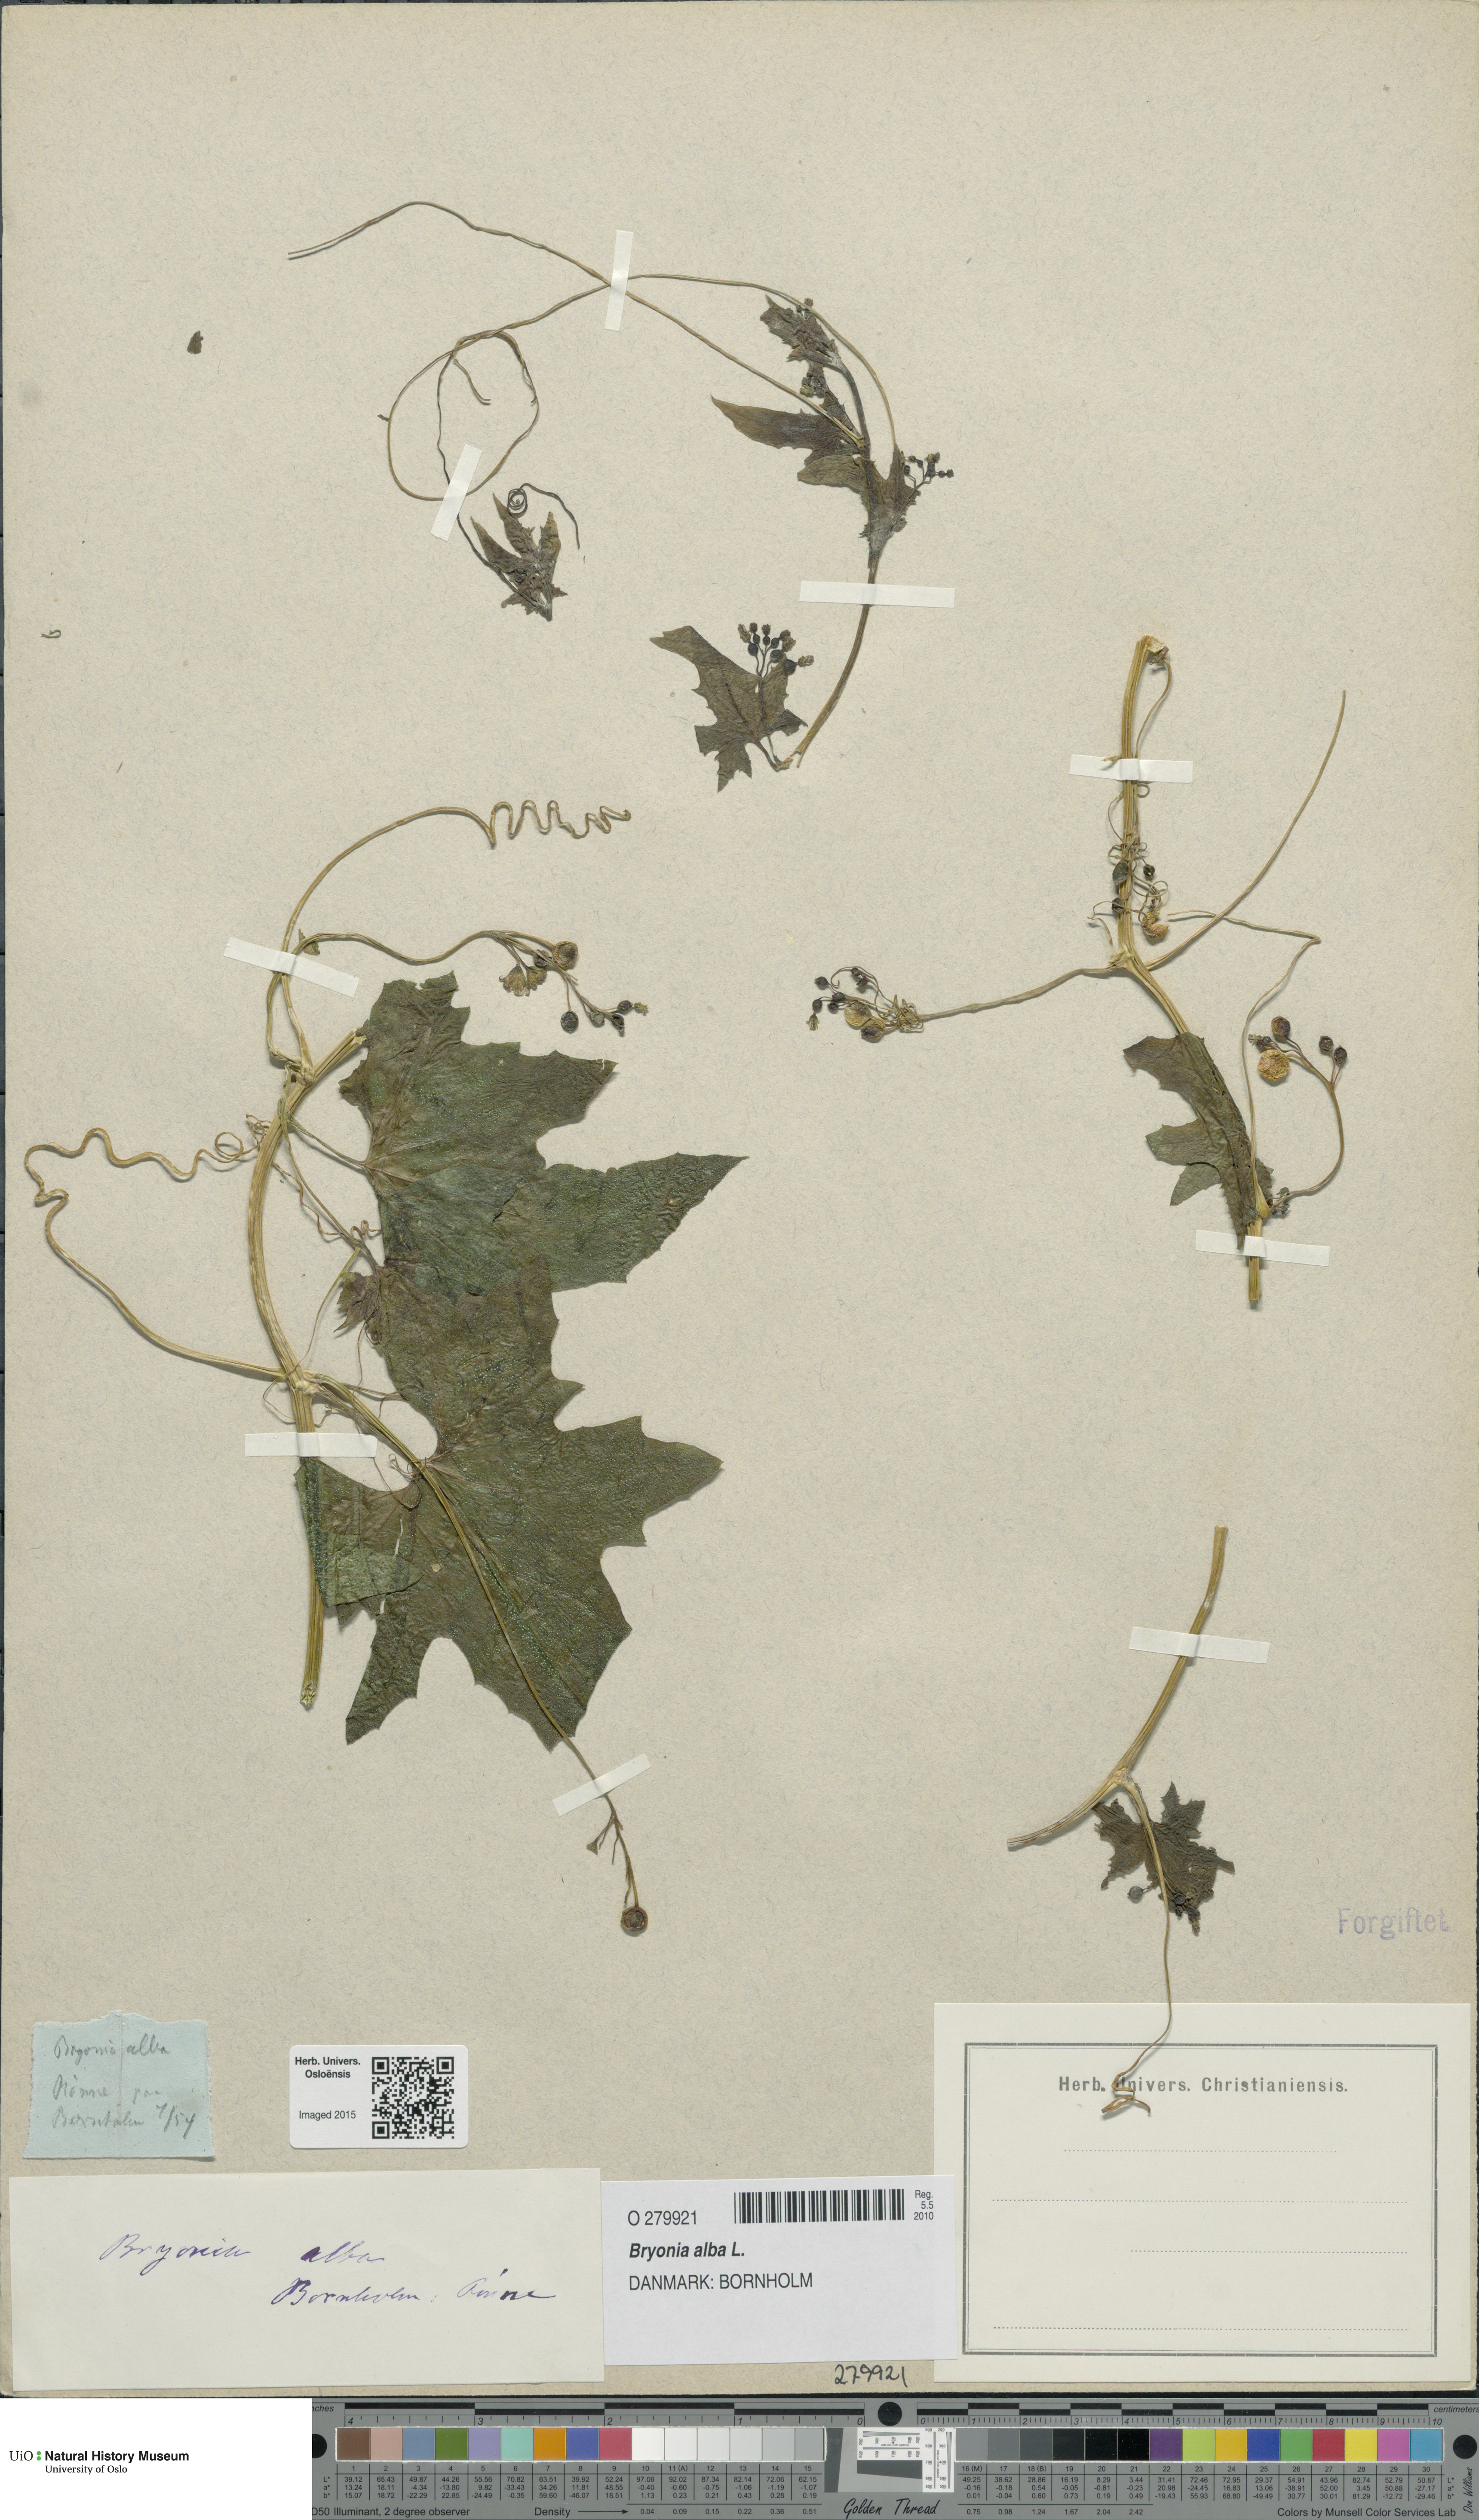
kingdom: Plantae
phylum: Tracheophyta
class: Magnoliopsida
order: Cucurbitales
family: Cucurbitaceae
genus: Bryonia
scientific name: Bryonia alba
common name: White bryony
